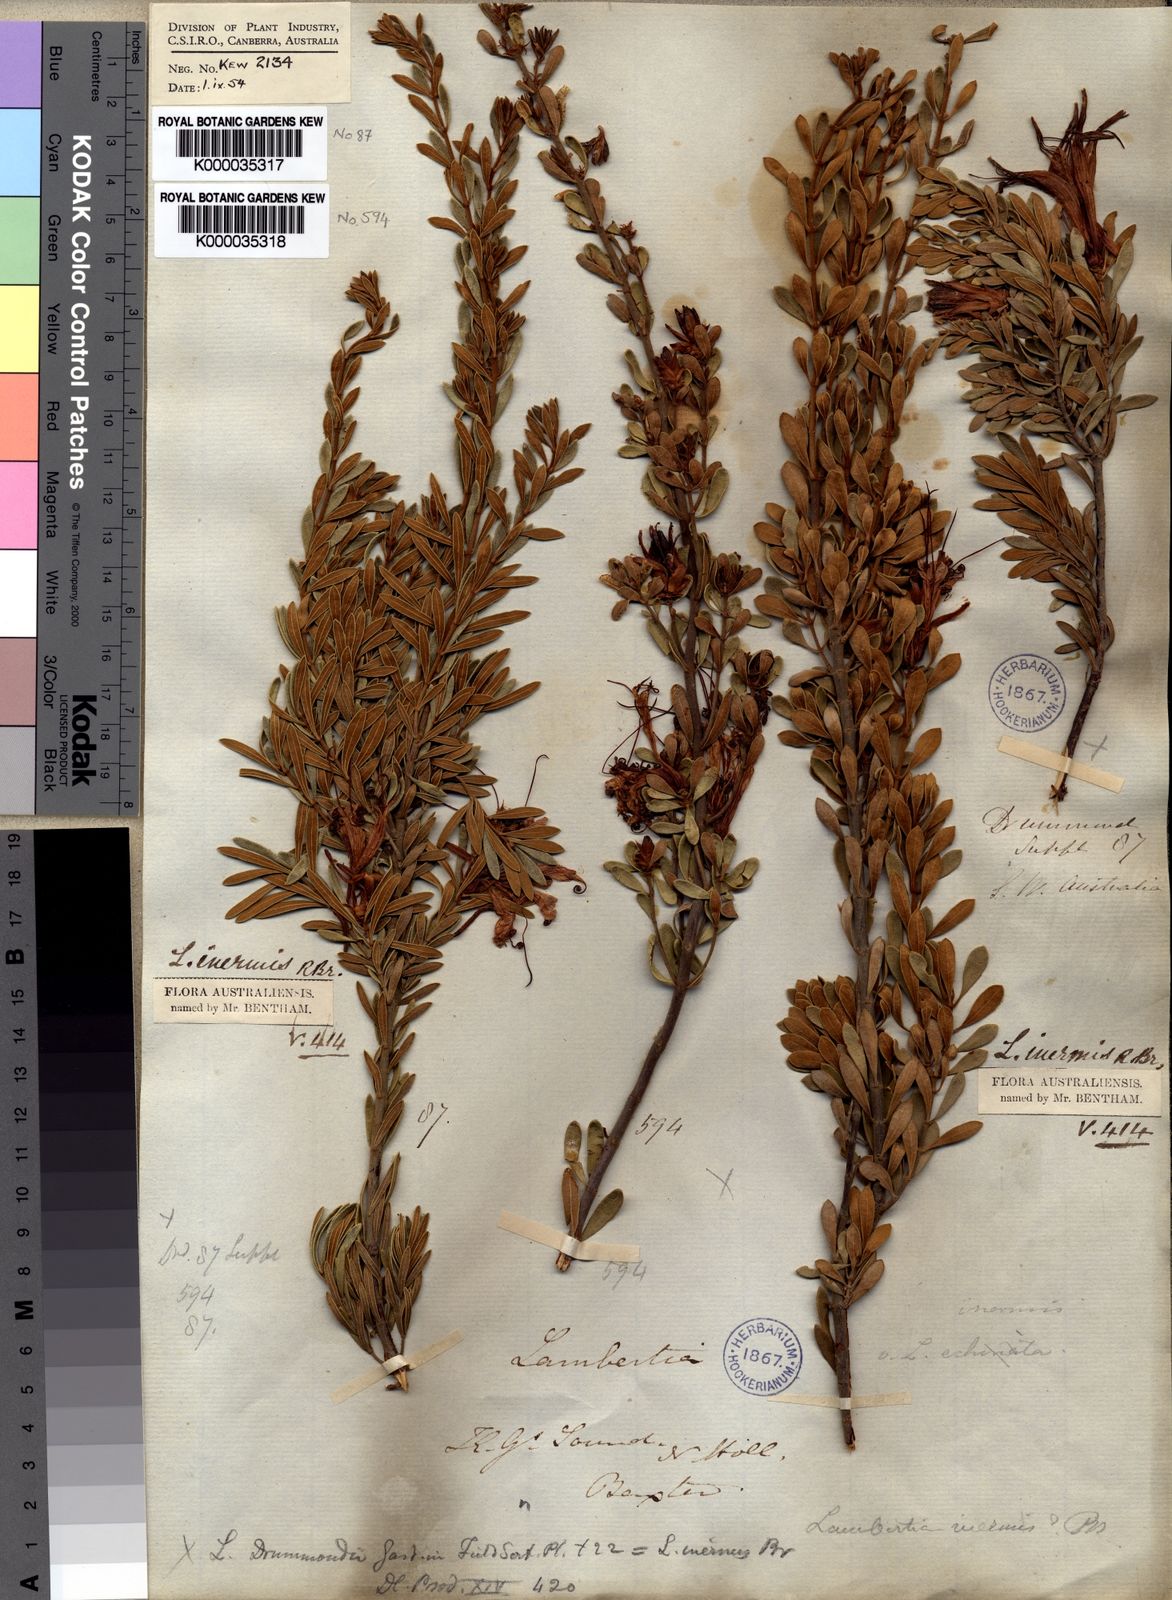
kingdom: Plantae
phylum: Tracheophyta
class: Magnoliopsida
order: Proteales
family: Proteaceae
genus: Lambertia
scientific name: Lambertia inermis
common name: Chittick
